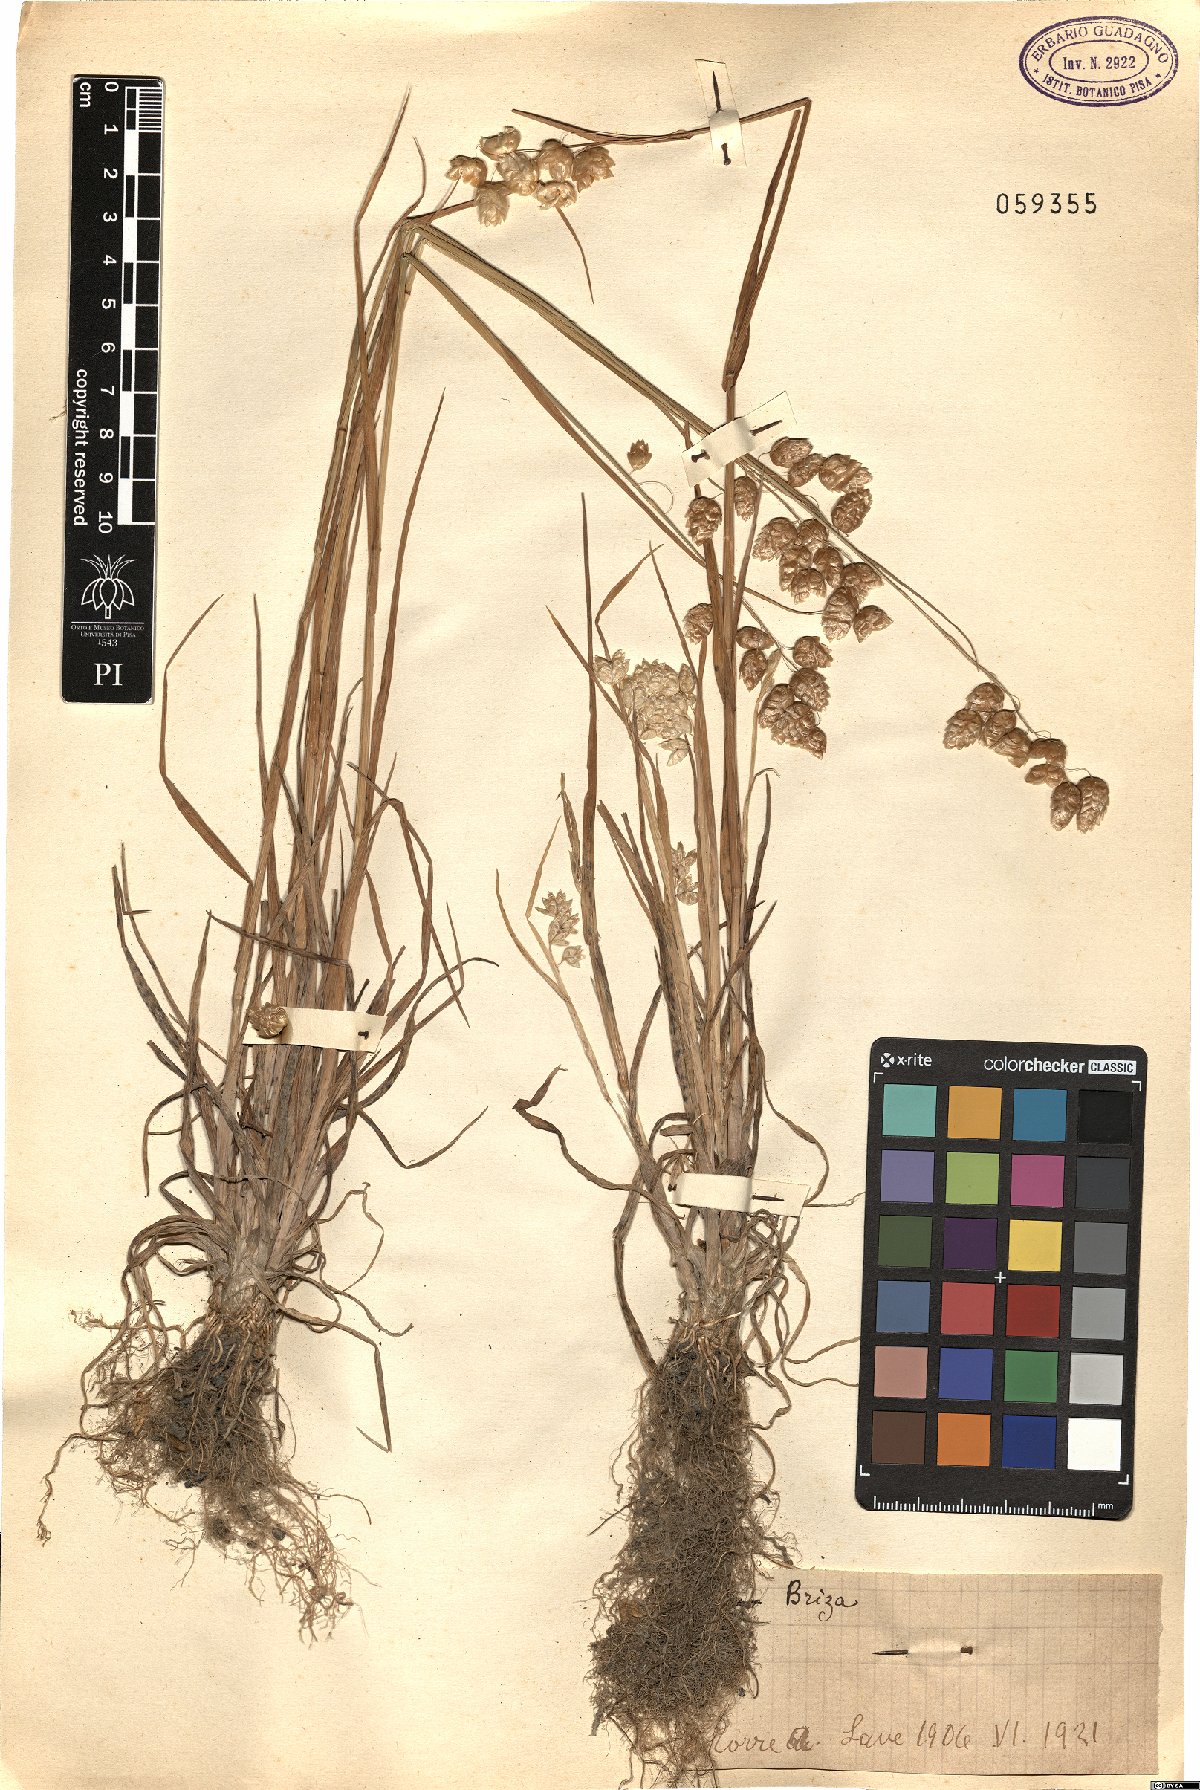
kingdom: Plantae
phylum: Tracheophyta
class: Liliopsida
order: Poales
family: Poaceae
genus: Briza
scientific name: Briza
